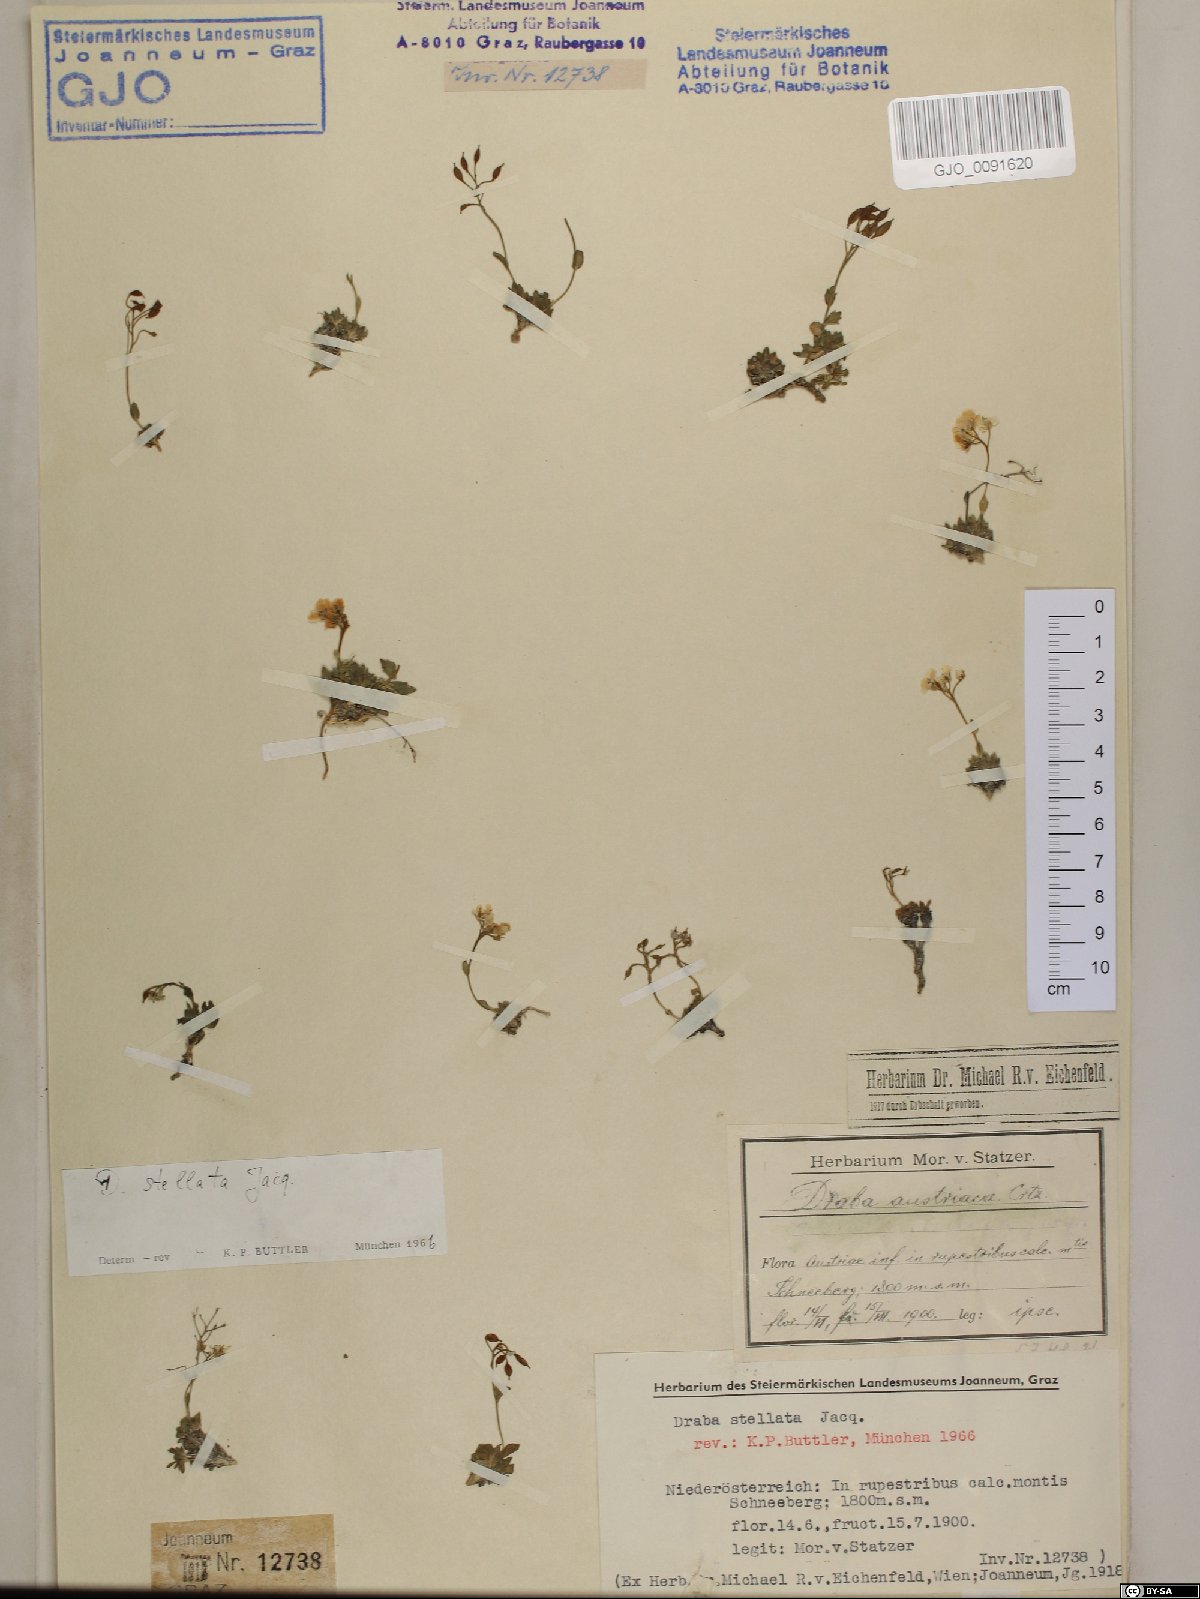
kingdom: Plantae
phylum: Tracheophyta
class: Magnoliopsida
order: Brassicales
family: Brassicaceae
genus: Draba
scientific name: Draba stellata
